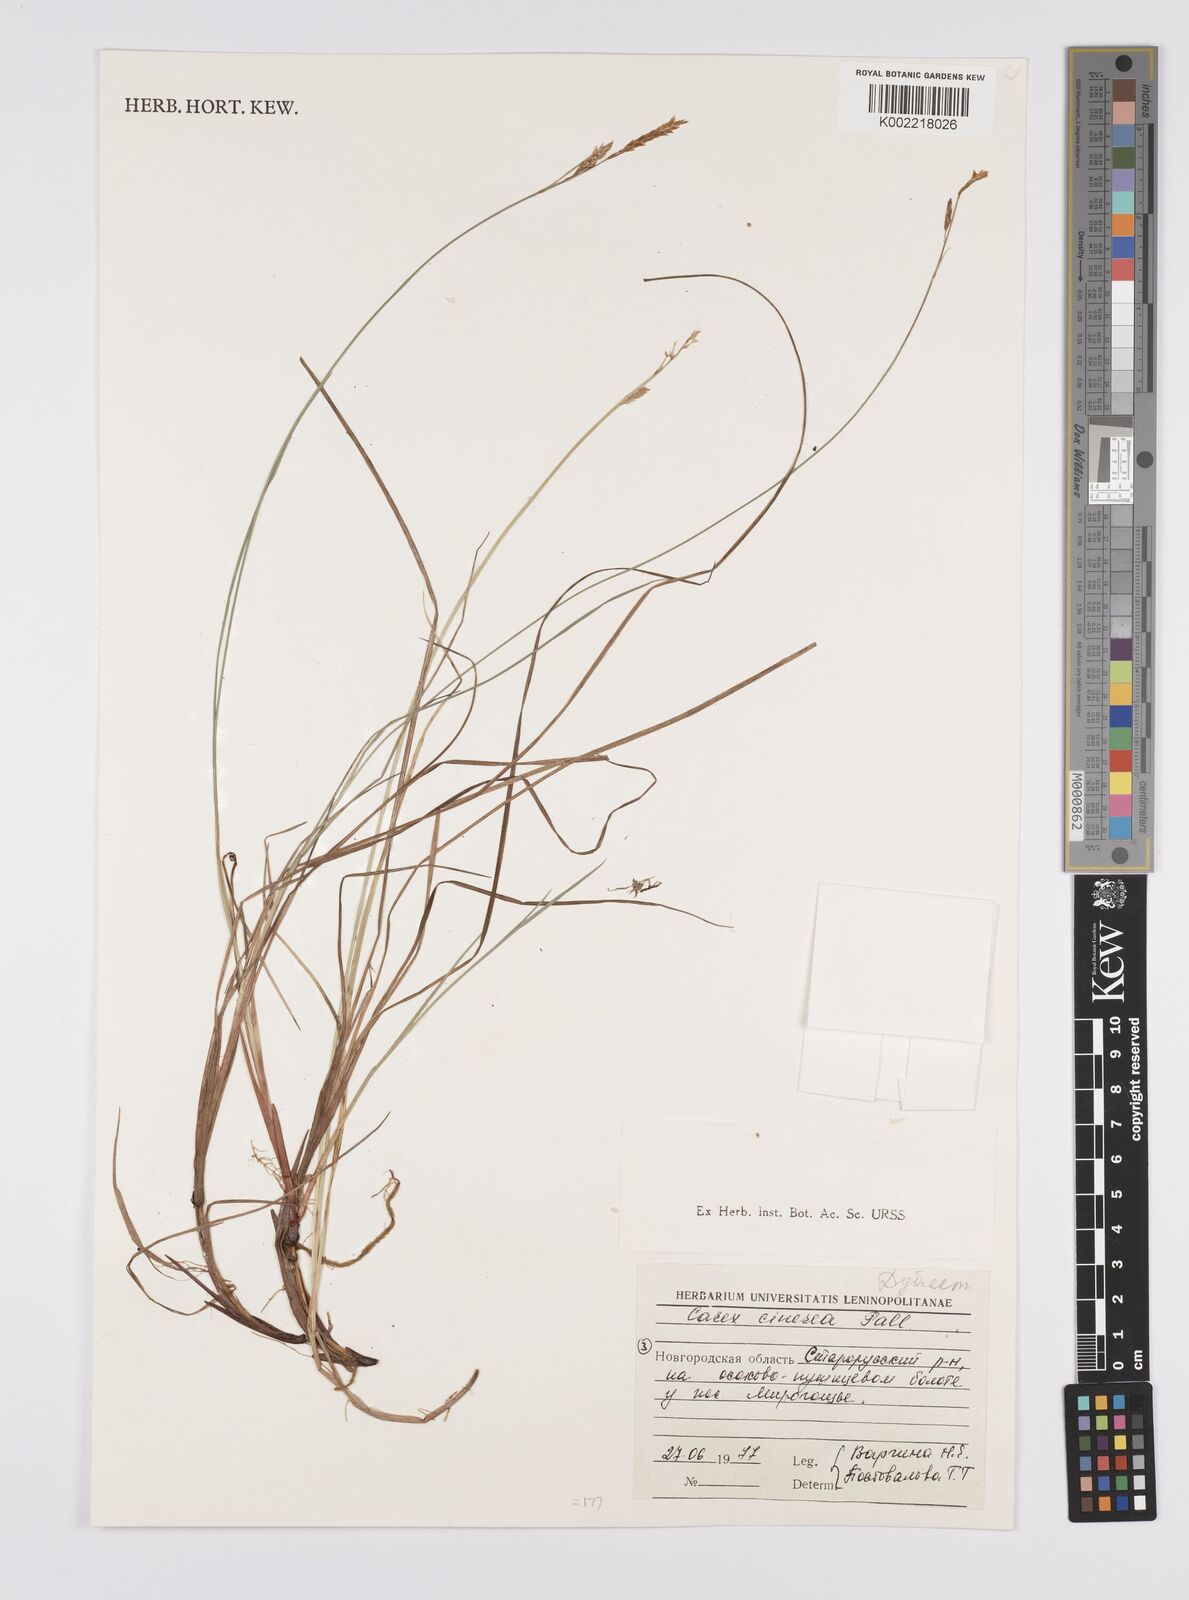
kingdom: Plantae
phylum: Tracheophyta
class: Liliopsida
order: Poales
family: Cyperaceae
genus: Carex
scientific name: Carex canescens
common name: White sedge
